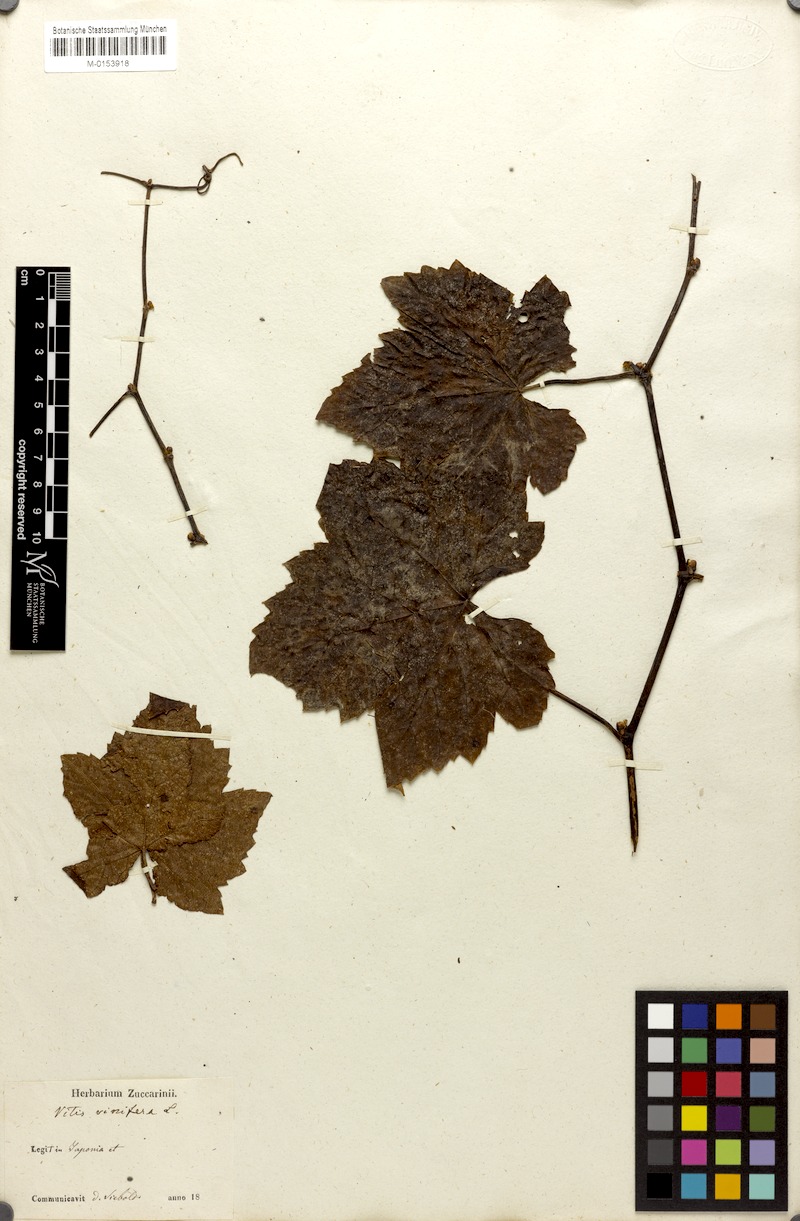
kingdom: Plantae
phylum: Tracheophyta
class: Magnoliopsida
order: Vitales
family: Vitaceae
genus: Vitis
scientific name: Vitis vinifera
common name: Grape-vine
